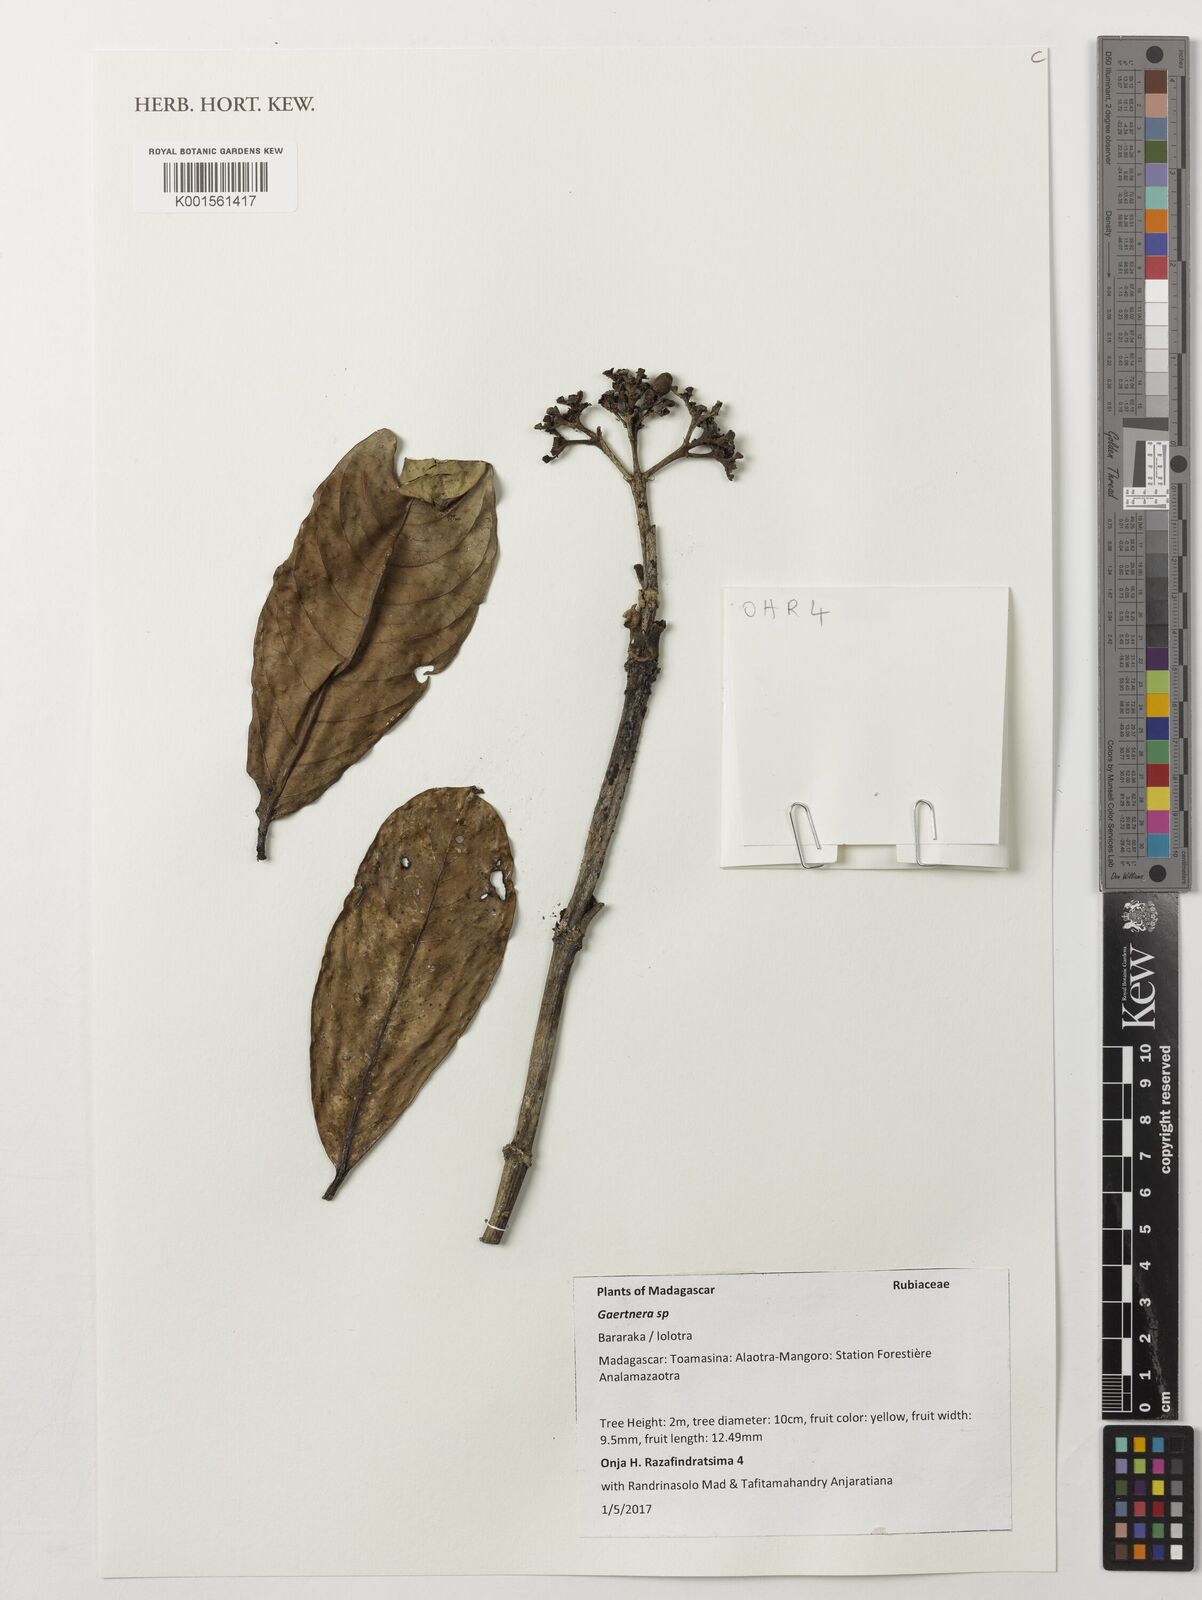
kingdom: Plantae
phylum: Tracheophyta
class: Magnoliopsida
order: Gentianales
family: Rubiaceae
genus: Gaertnera
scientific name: Gaertnera
